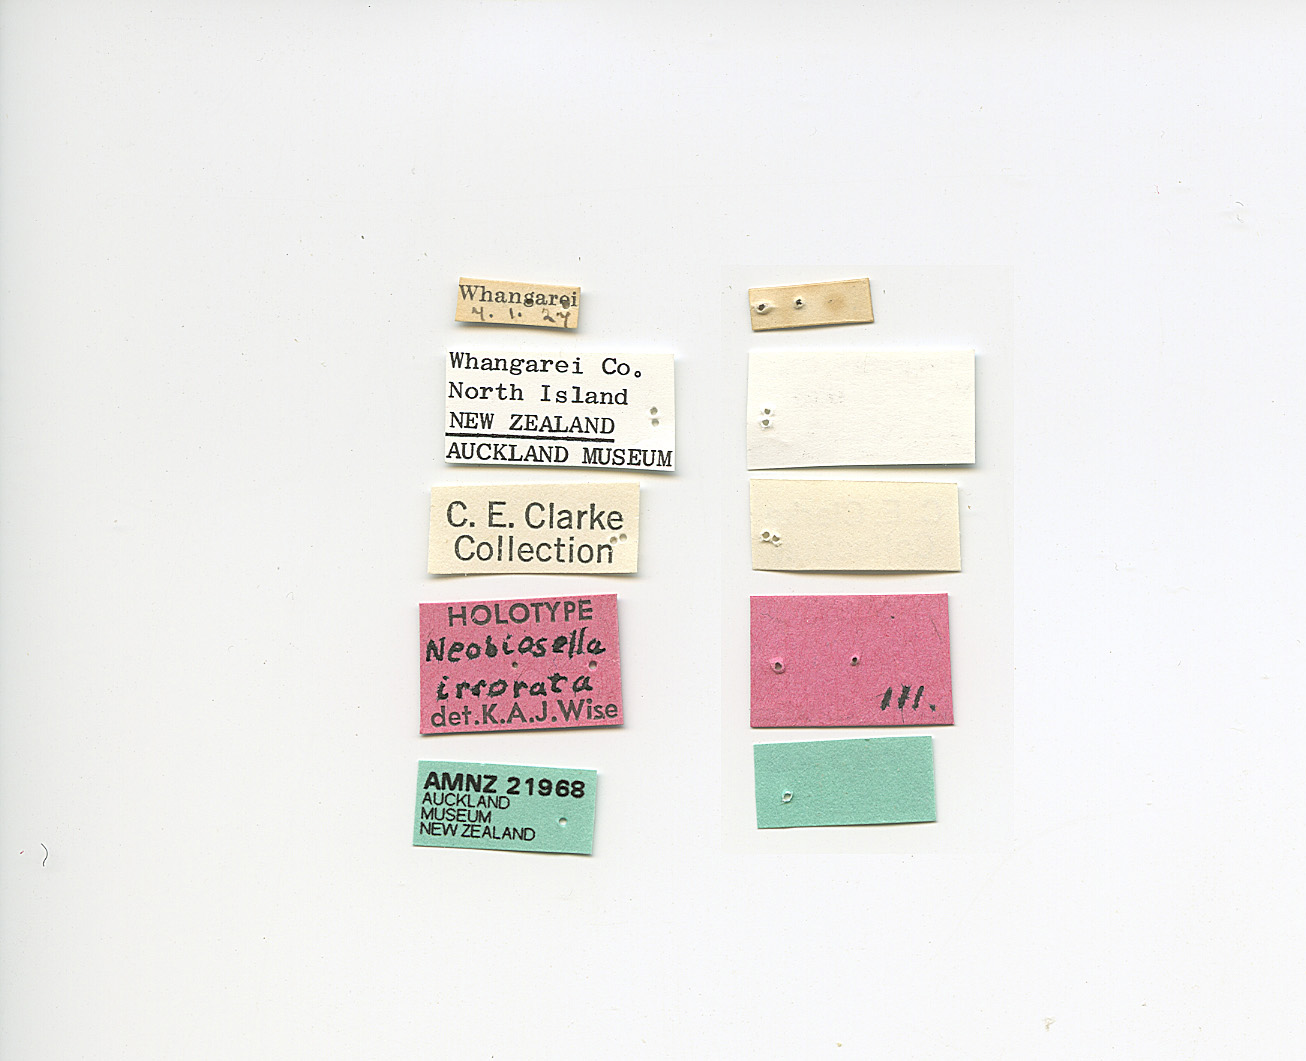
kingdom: Animalia
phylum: Arthropoda
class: Insecta
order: Trichoptera
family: Philopotamidae
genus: Neobiosella
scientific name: Neobiosella irrorata
